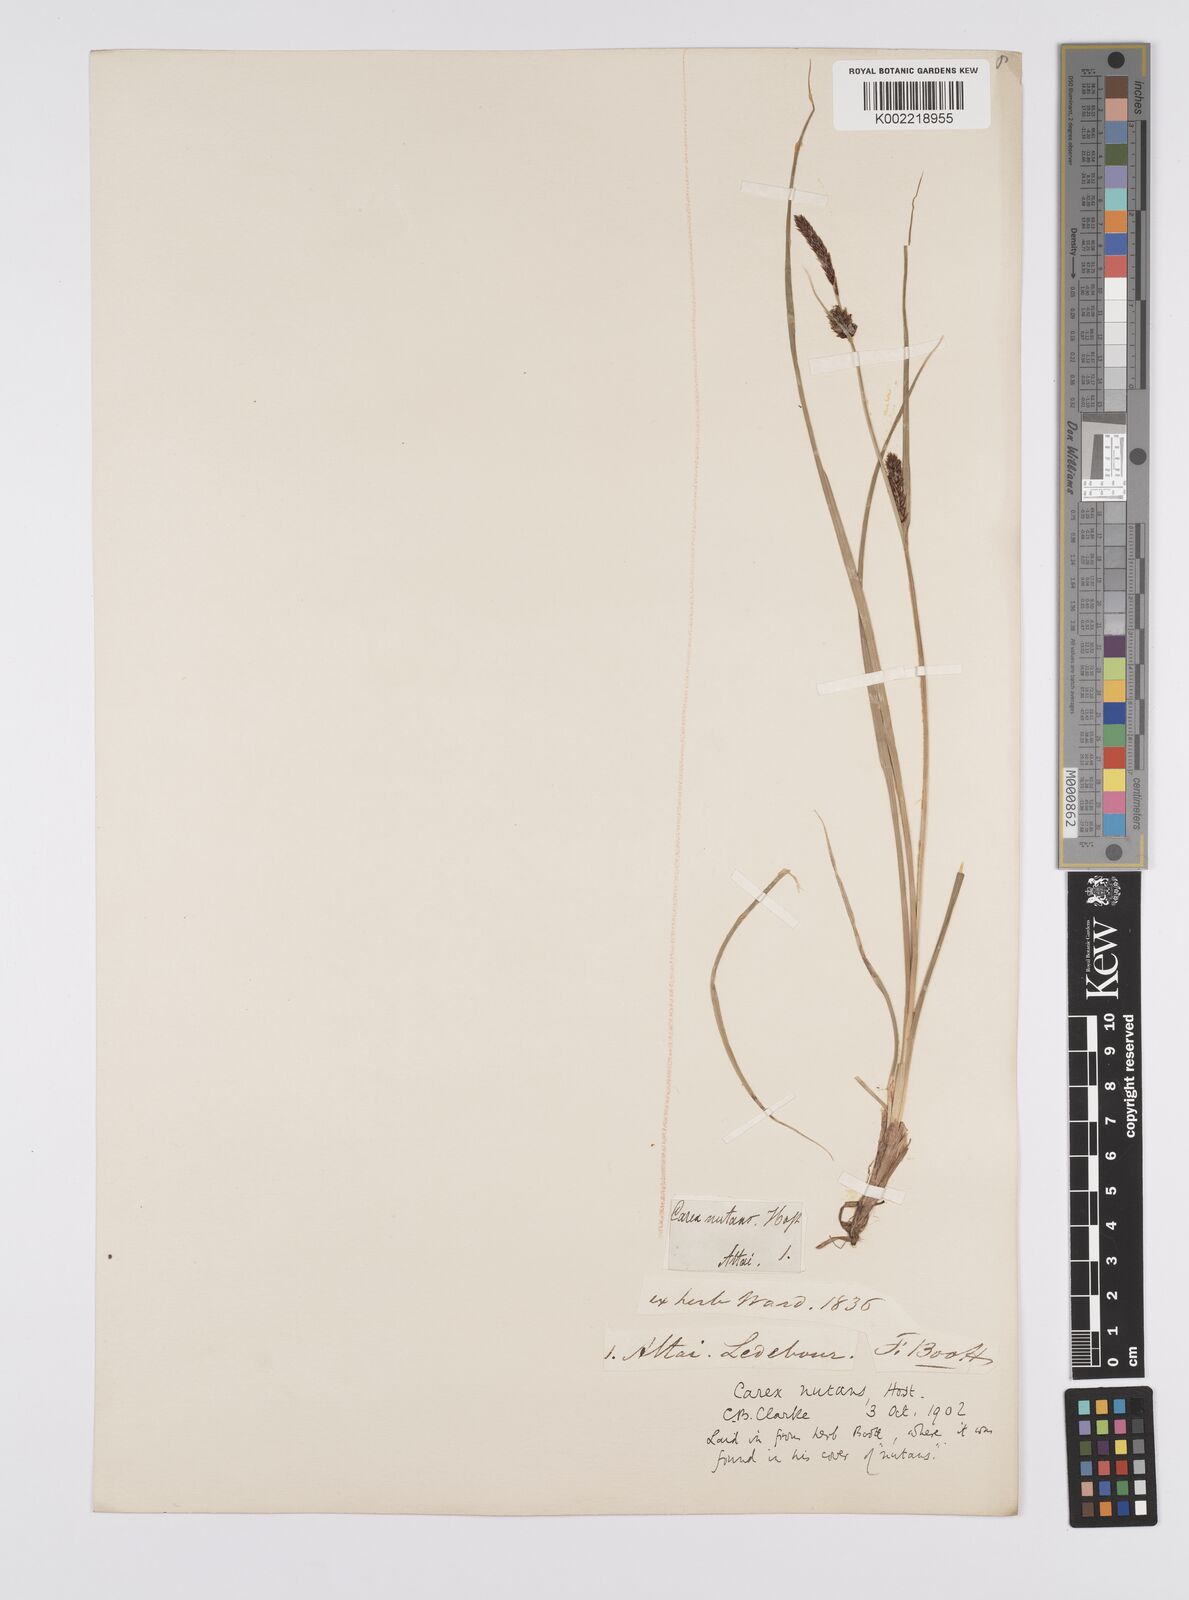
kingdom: Plantae
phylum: Tracheophyta
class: Liliopsida
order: Poales
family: Cyperaceae
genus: Carex
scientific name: Carex melanostachya
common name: Black-spiked sedge
